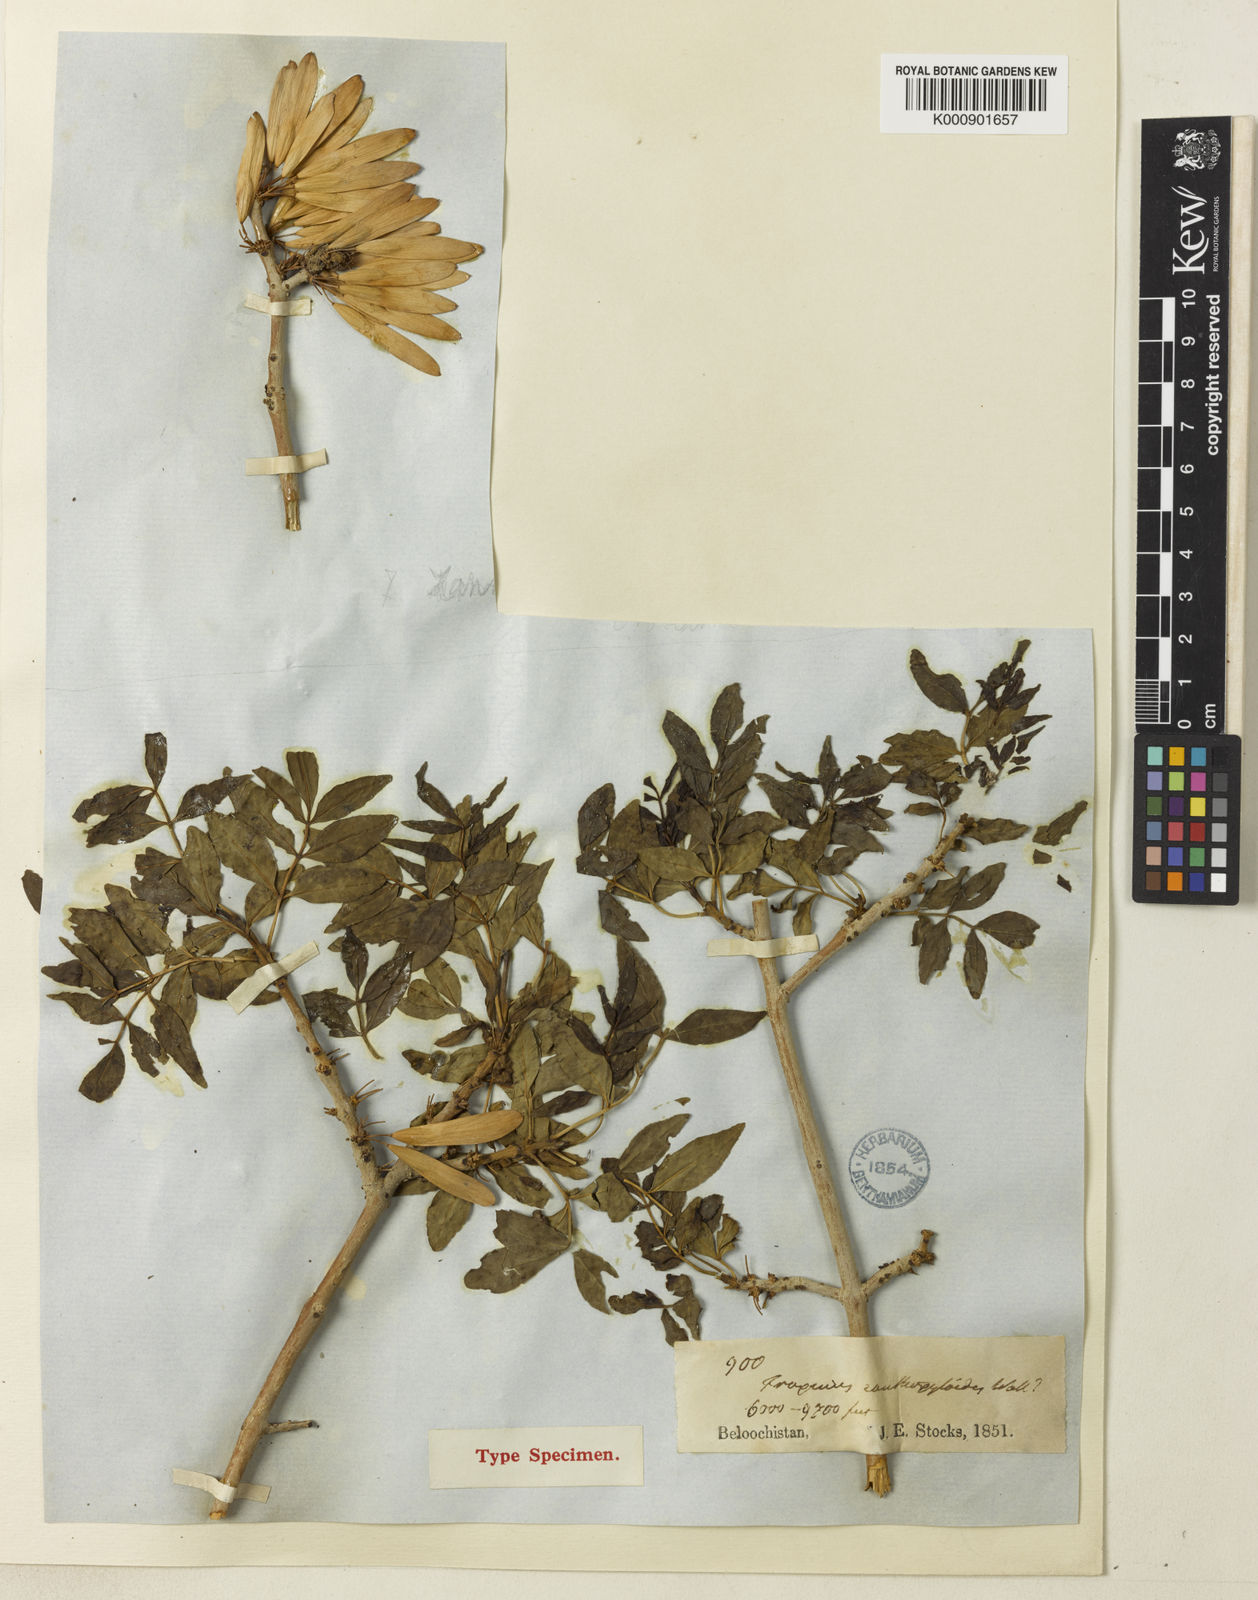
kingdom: Plantae
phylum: Tracheophyta
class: Magnoliopsida
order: Lamiales
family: Oleaceae
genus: Fraxinus
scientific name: Fraxinus xanthoxyloides
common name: Afghan ash
